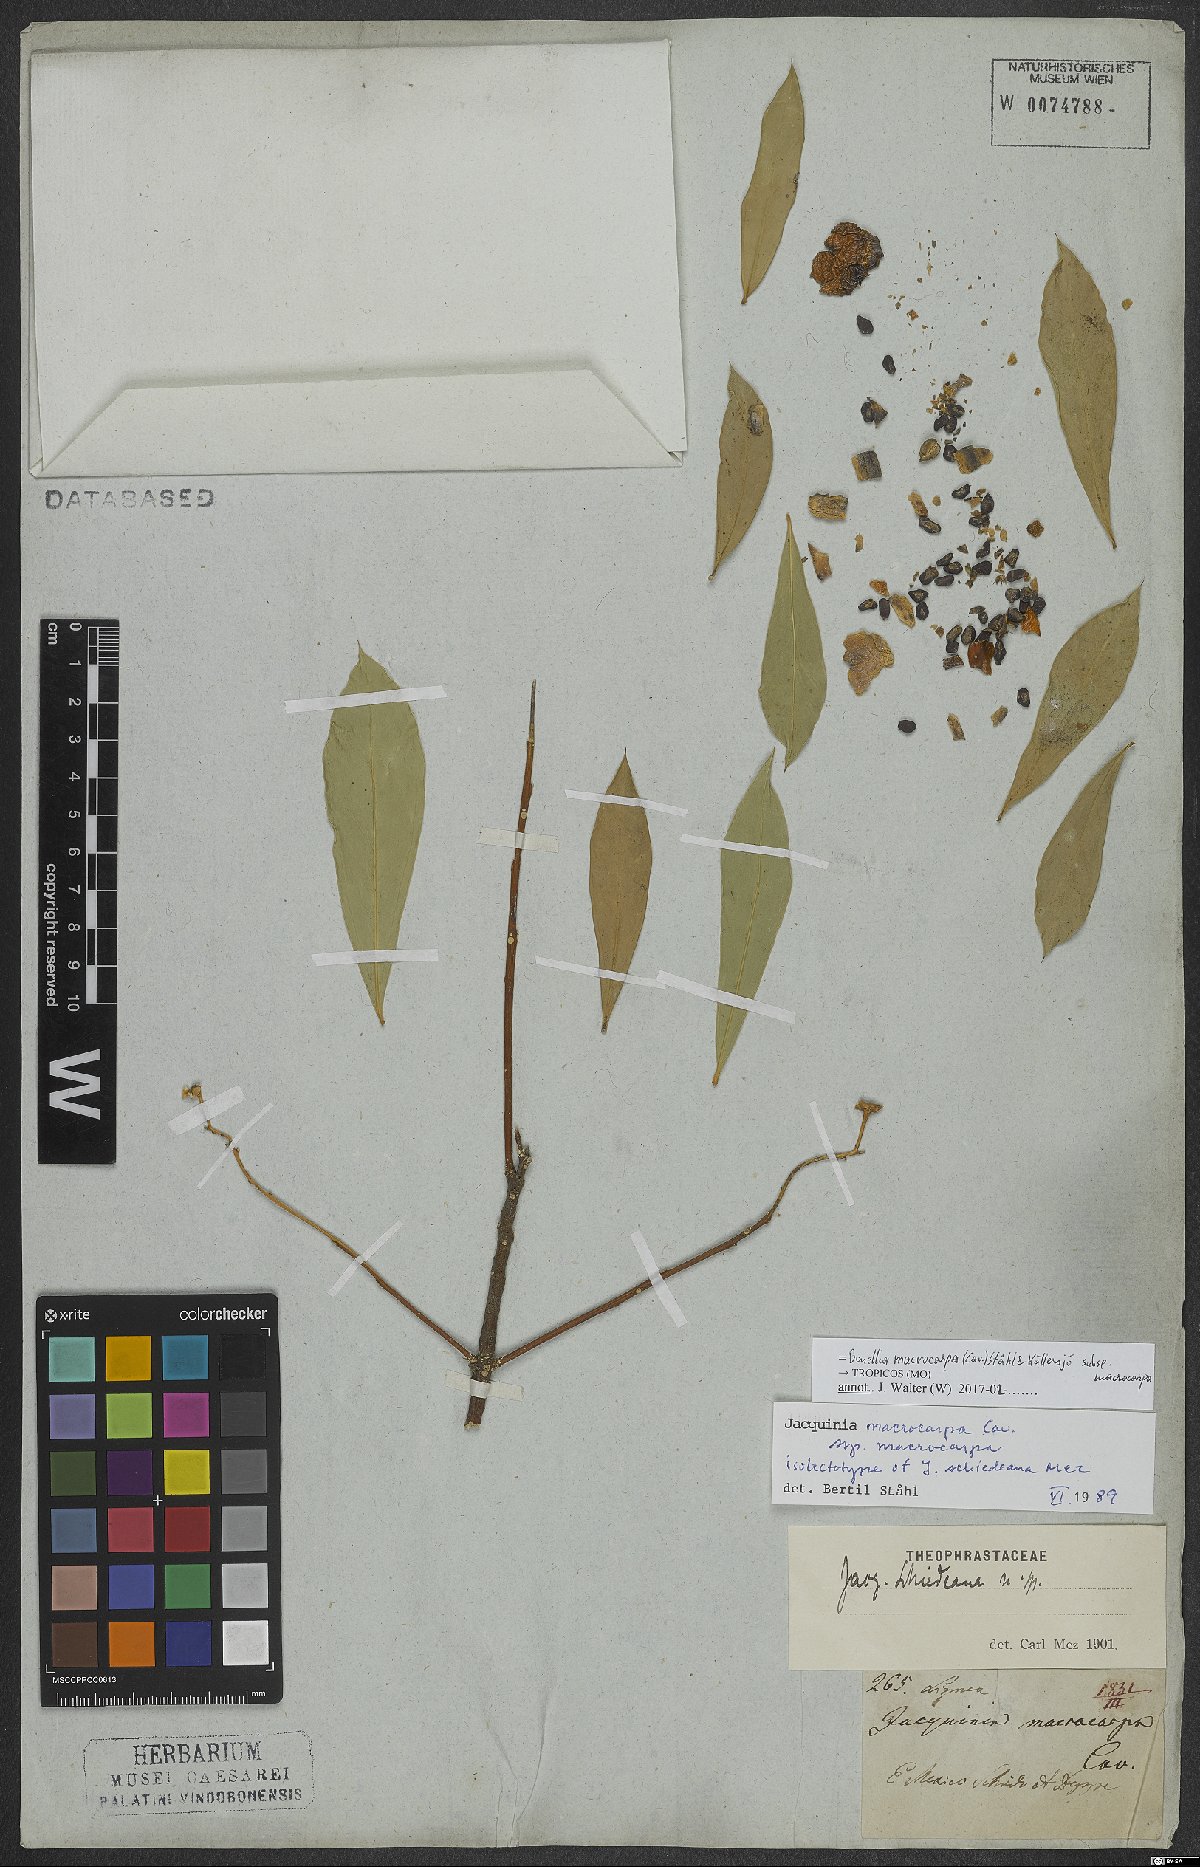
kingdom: Plantae
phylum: Tracheophyta
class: Magnoliopsida
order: Ericales
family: Primulaceae
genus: Bonellia
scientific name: Bonellia macrocarpa
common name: Primrose
